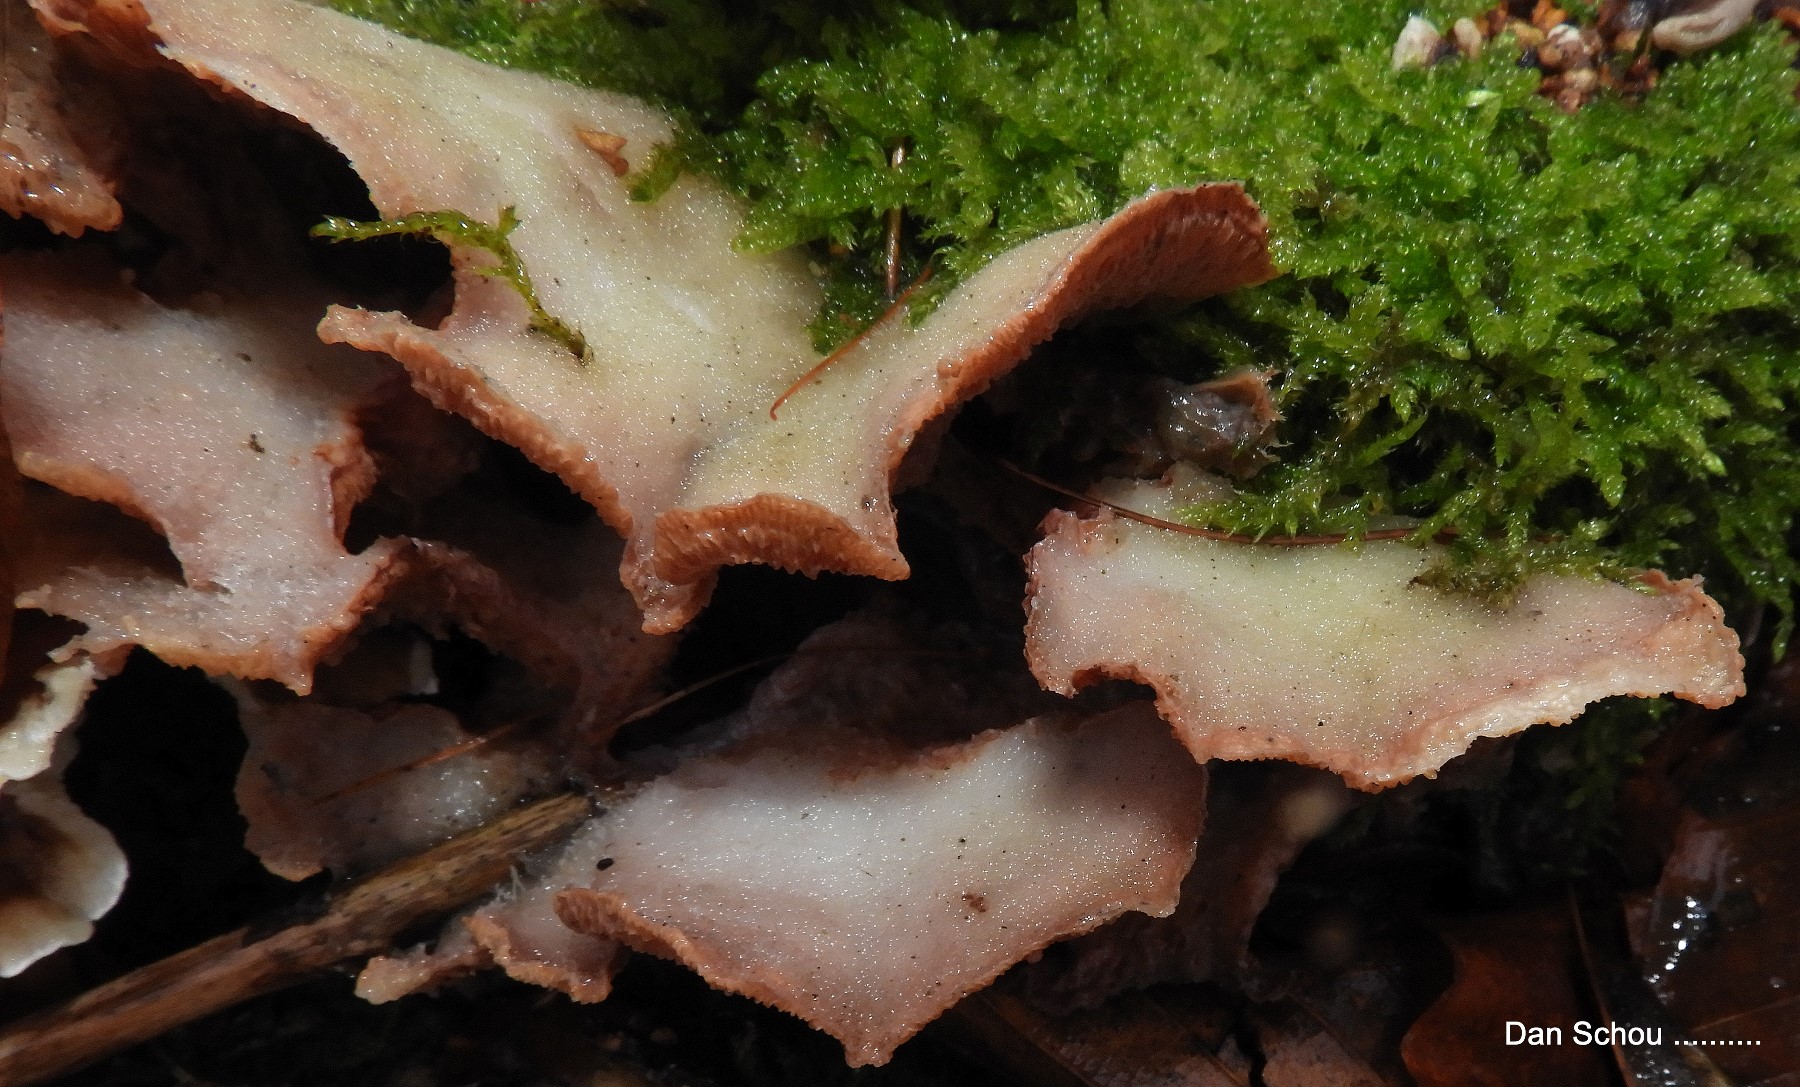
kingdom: Fungi
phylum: Basidiomycota
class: Agaricomycetes
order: Polyporales
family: Meruliaceae
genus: Phlebia
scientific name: Phlebia tremellosa
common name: bævrende åresvamp
